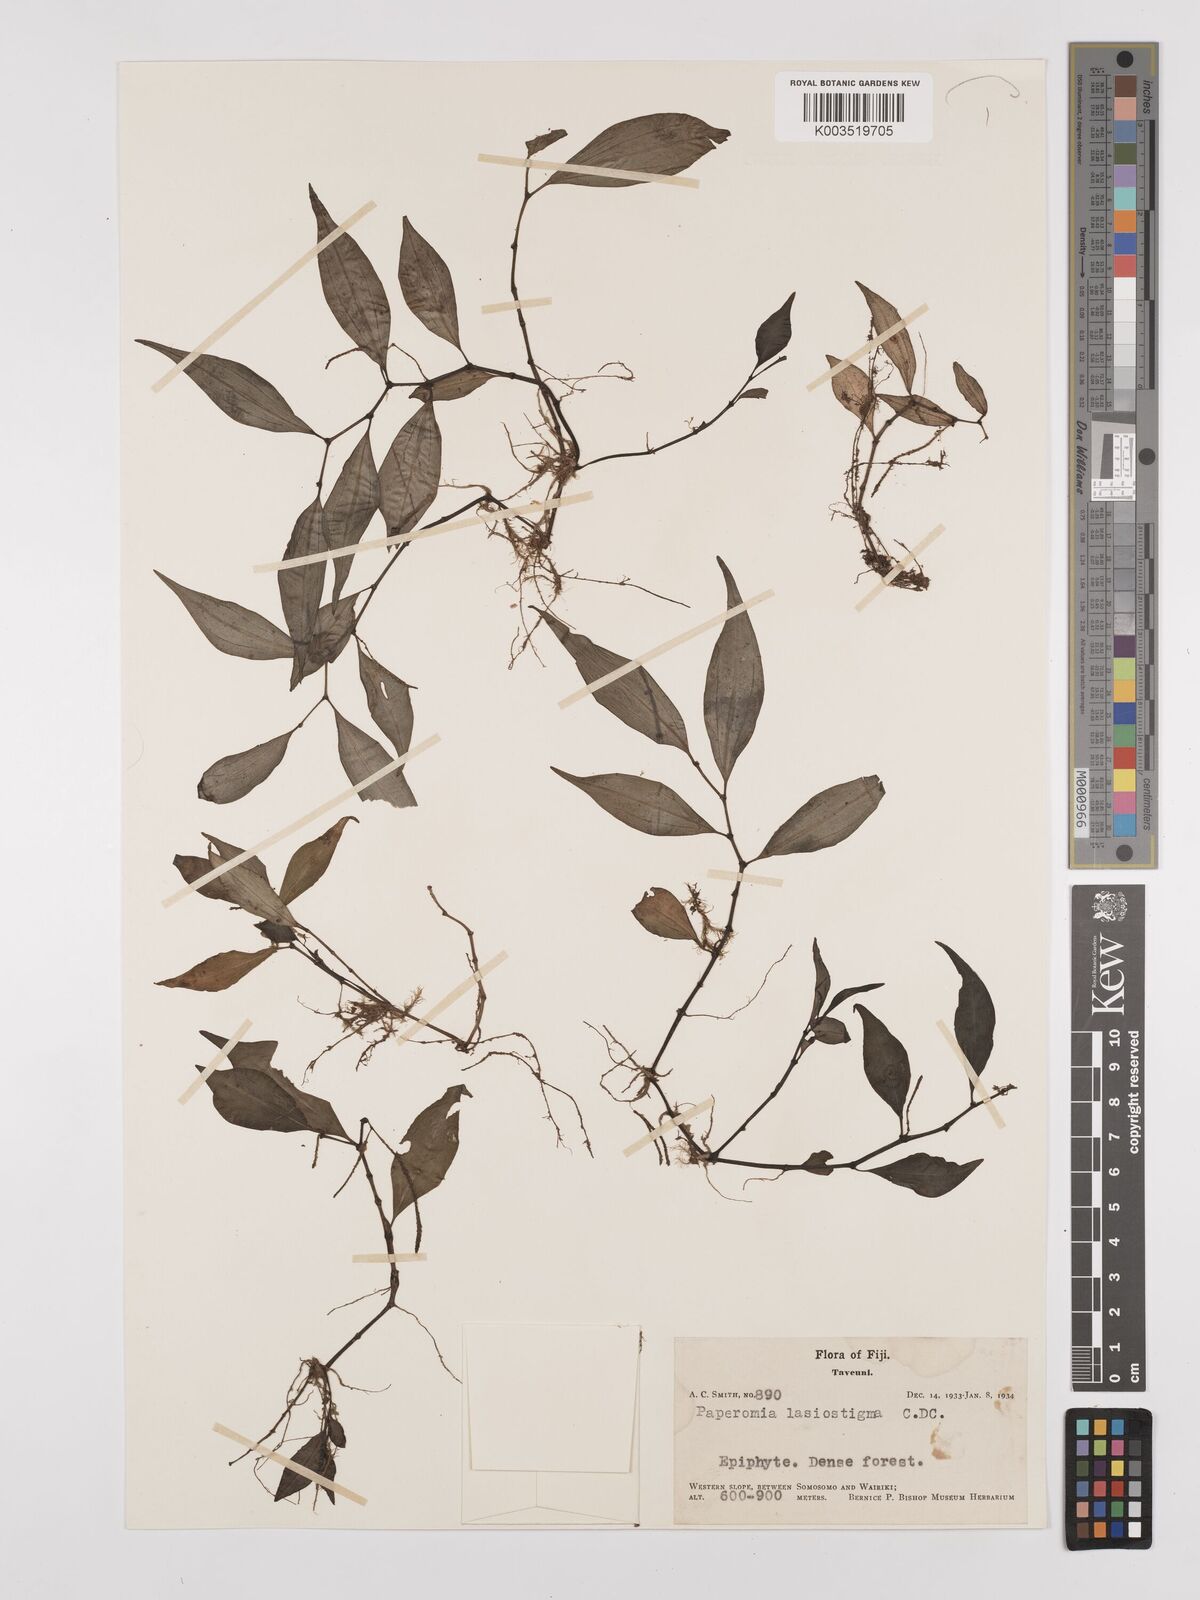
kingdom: Plantae
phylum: Tracheophyta
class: Magnoliopsida
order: Piperales
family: Piperaceae
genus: Peperomia
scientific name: Peperomia lasiostigma
